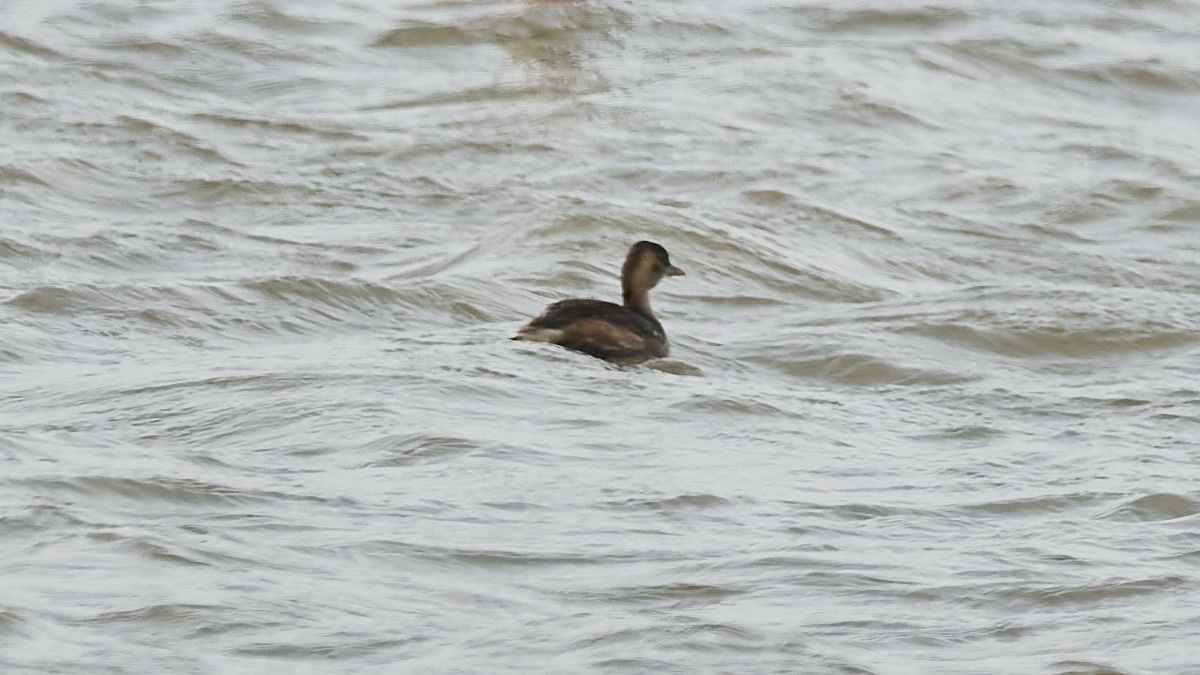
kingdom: Animalia
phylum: Chordata
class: Aves
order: Podicipediformes
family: Podicipedidae
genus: Tachybaptus
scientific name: Tachybaptus ruficollis
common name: Lille lappedykker
